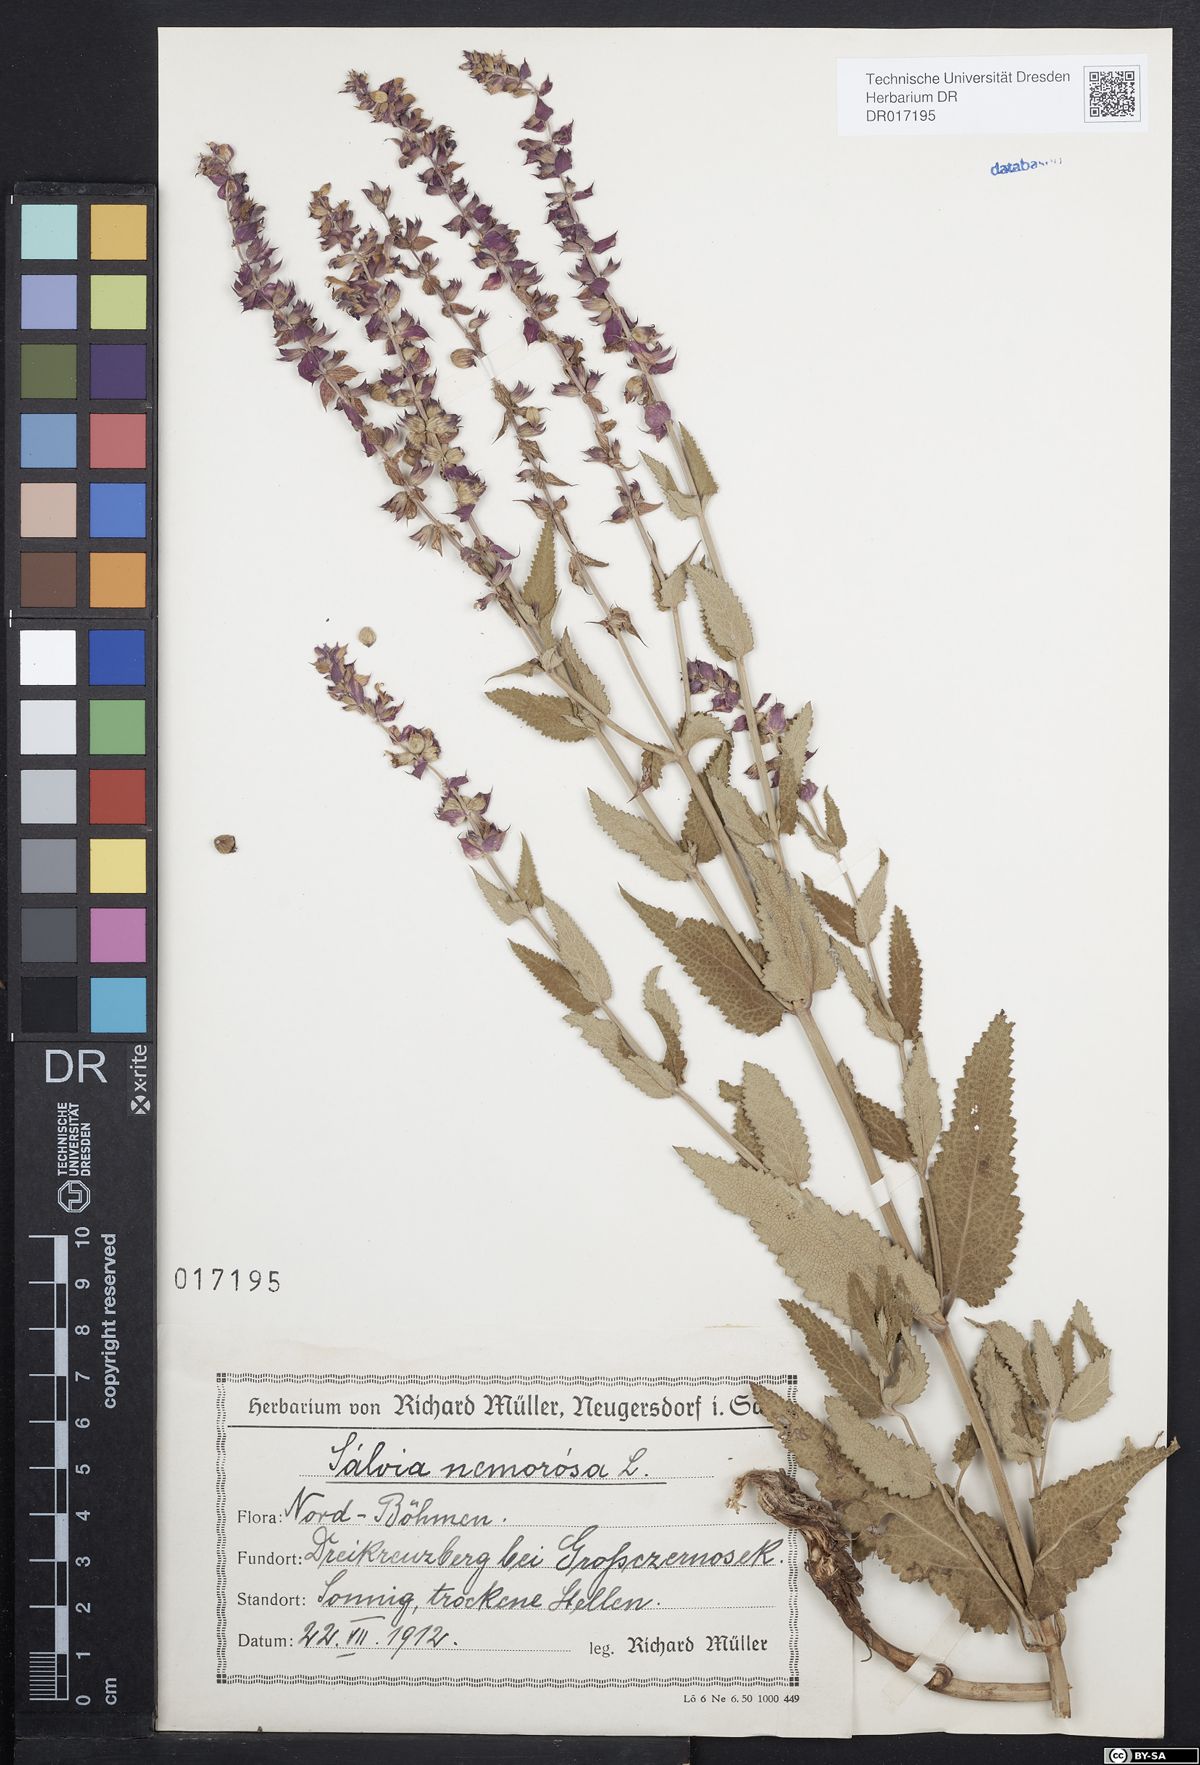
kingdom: Plantae
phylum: Tracheophyta
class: Magnoliopsida
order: Lamiales
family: Lamiaceae
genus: Salvia
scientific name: Salvia nemorosa
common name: Balkan clary
